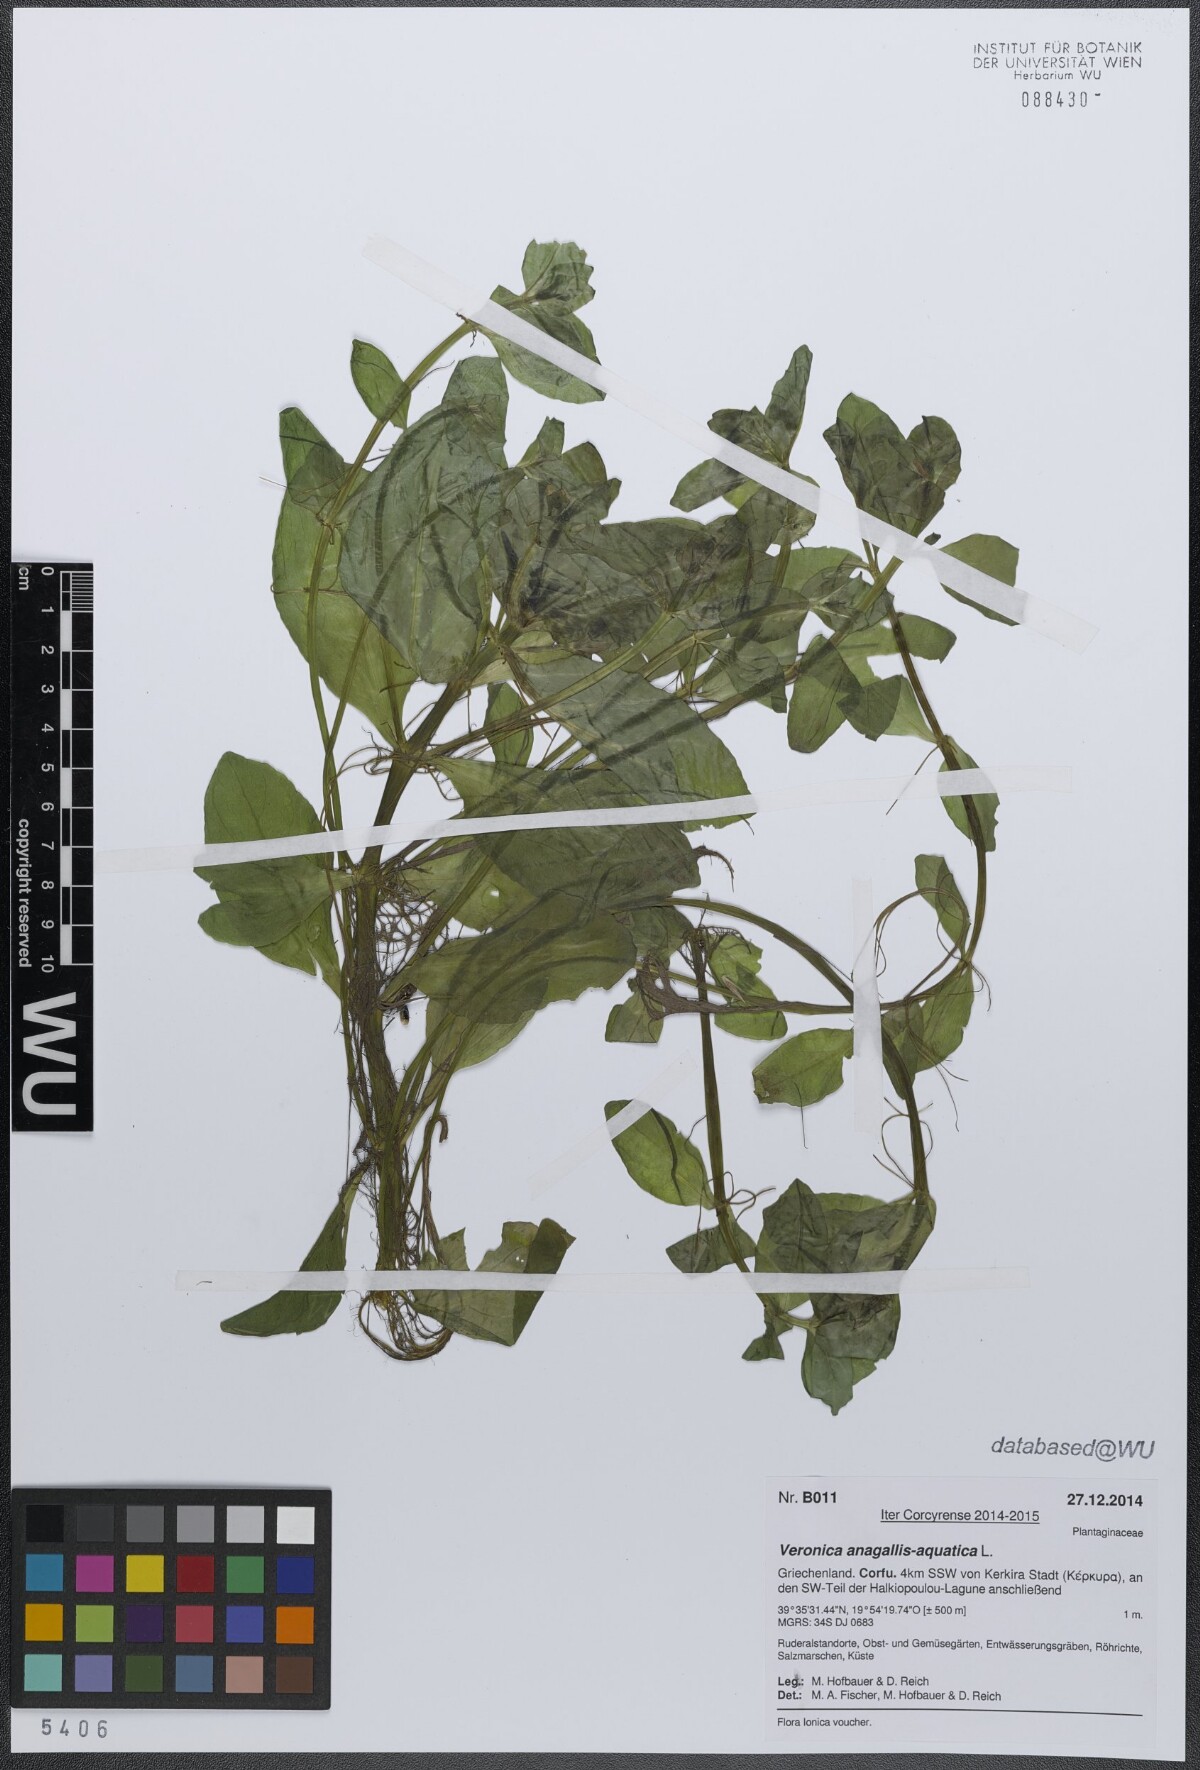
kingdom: Plantae
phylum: Tracheophyta
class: Magnoliopsida
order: Lamiales
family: Plantaginaceae
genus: Veronica
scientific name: Veronica anagallis-aquatica
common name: Water speedwell
